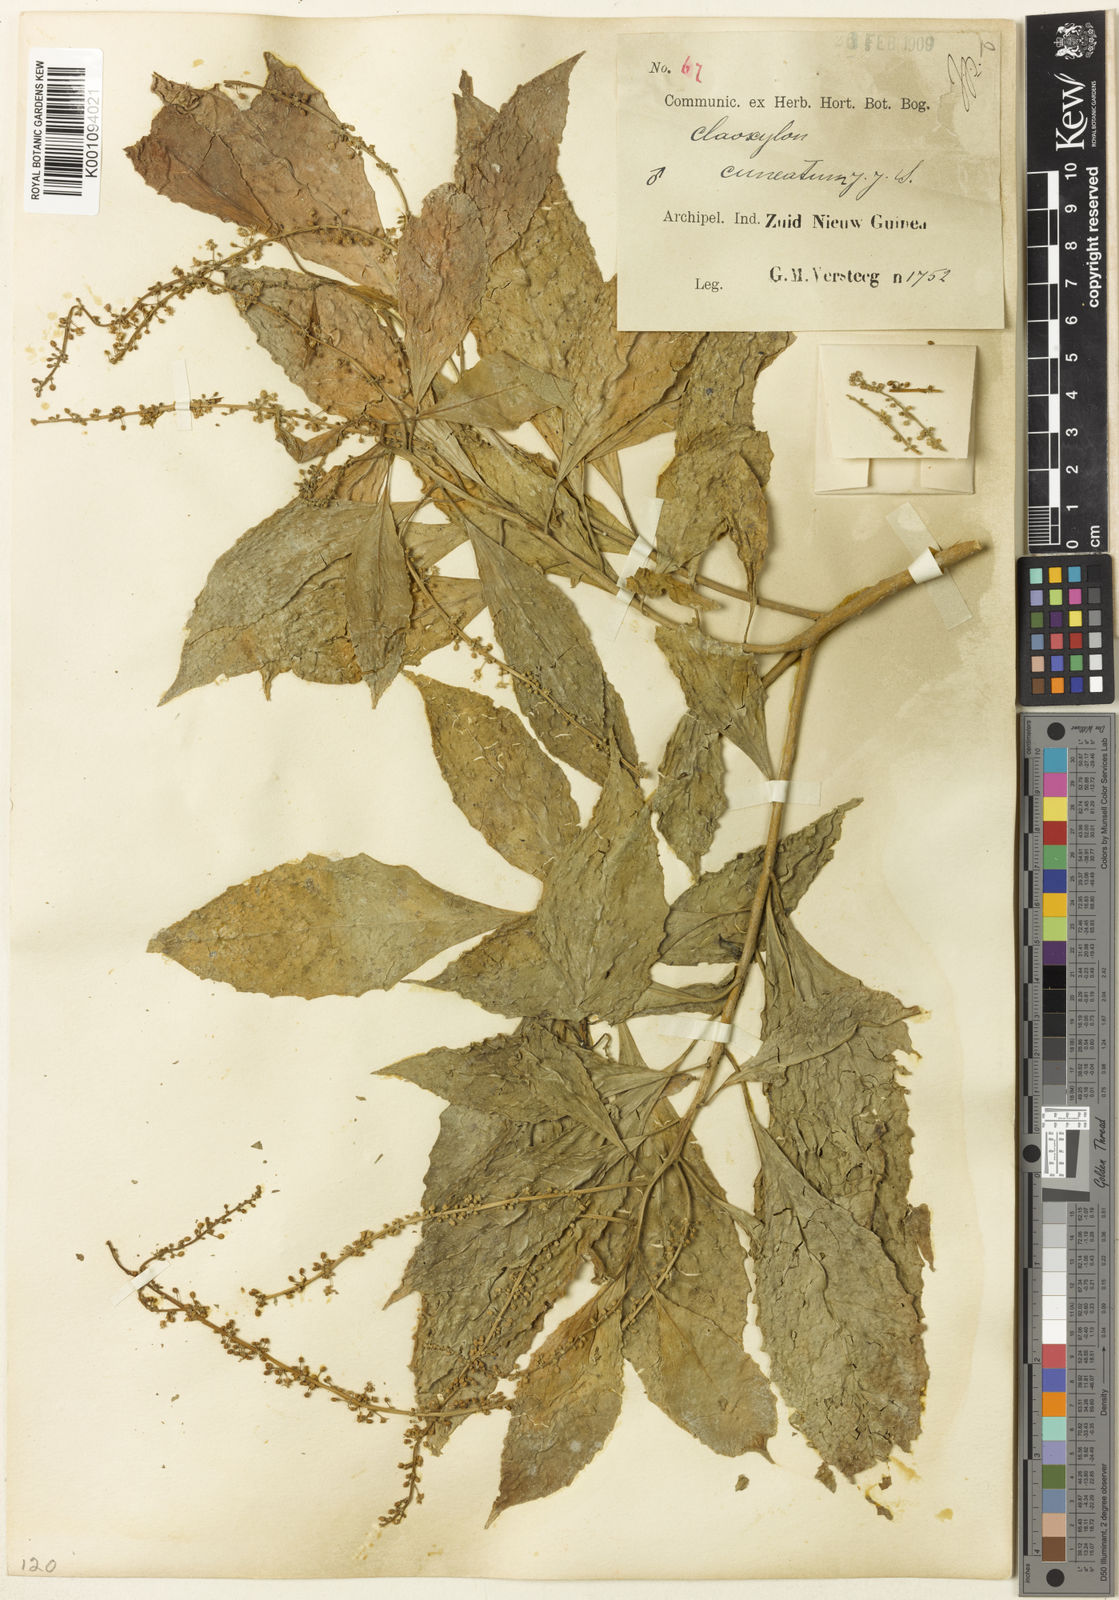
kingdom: Plantae
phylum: Tracheophyta
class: Magnoliopsida
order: Malpighiales
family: Euphorbiaceae
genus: Claoxylon
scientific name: Claoxylon cuneatum
